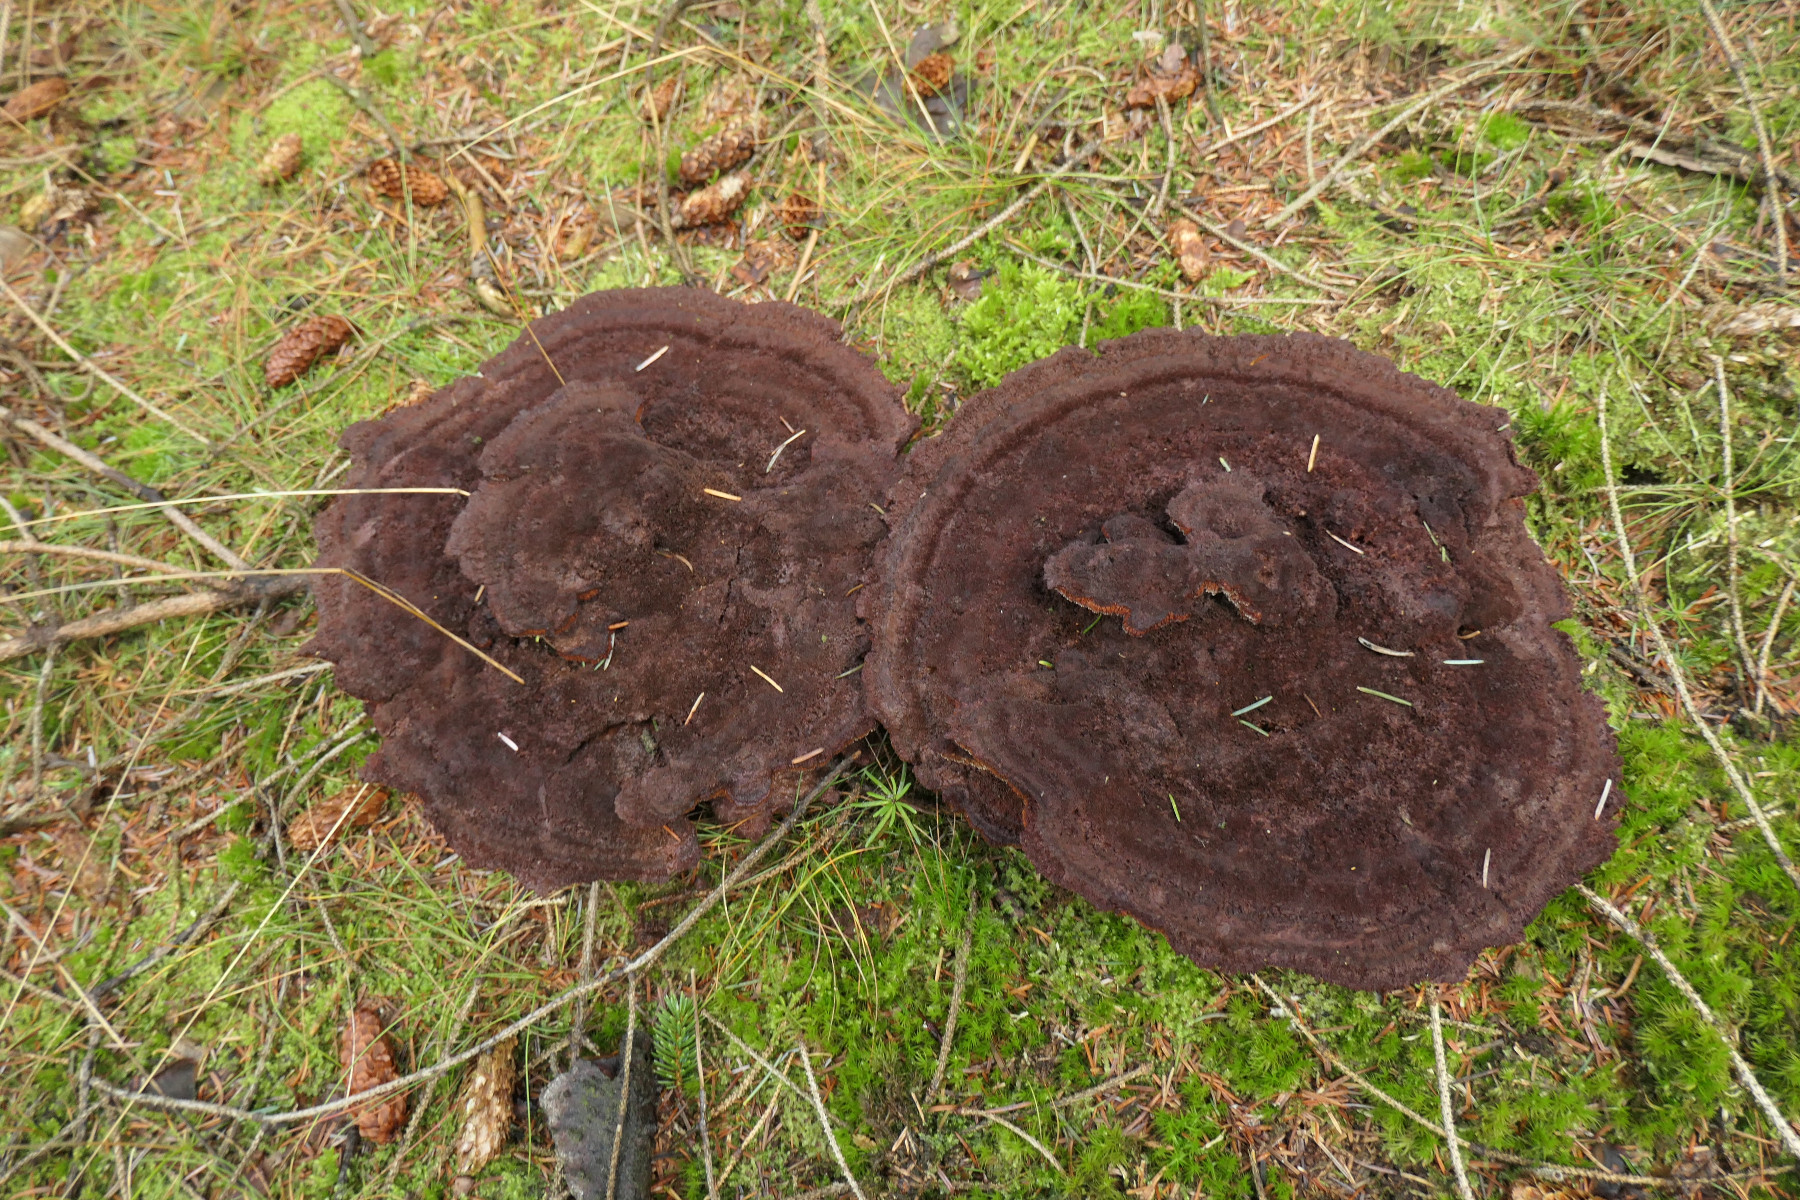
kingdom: Fungi
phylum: Basidiomycota
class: Agaricomycetes
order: Polyporales
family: Laetiporaceae
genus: Phaeolus
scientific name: Phaeolus schweinitzii
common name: brunporesvamp
